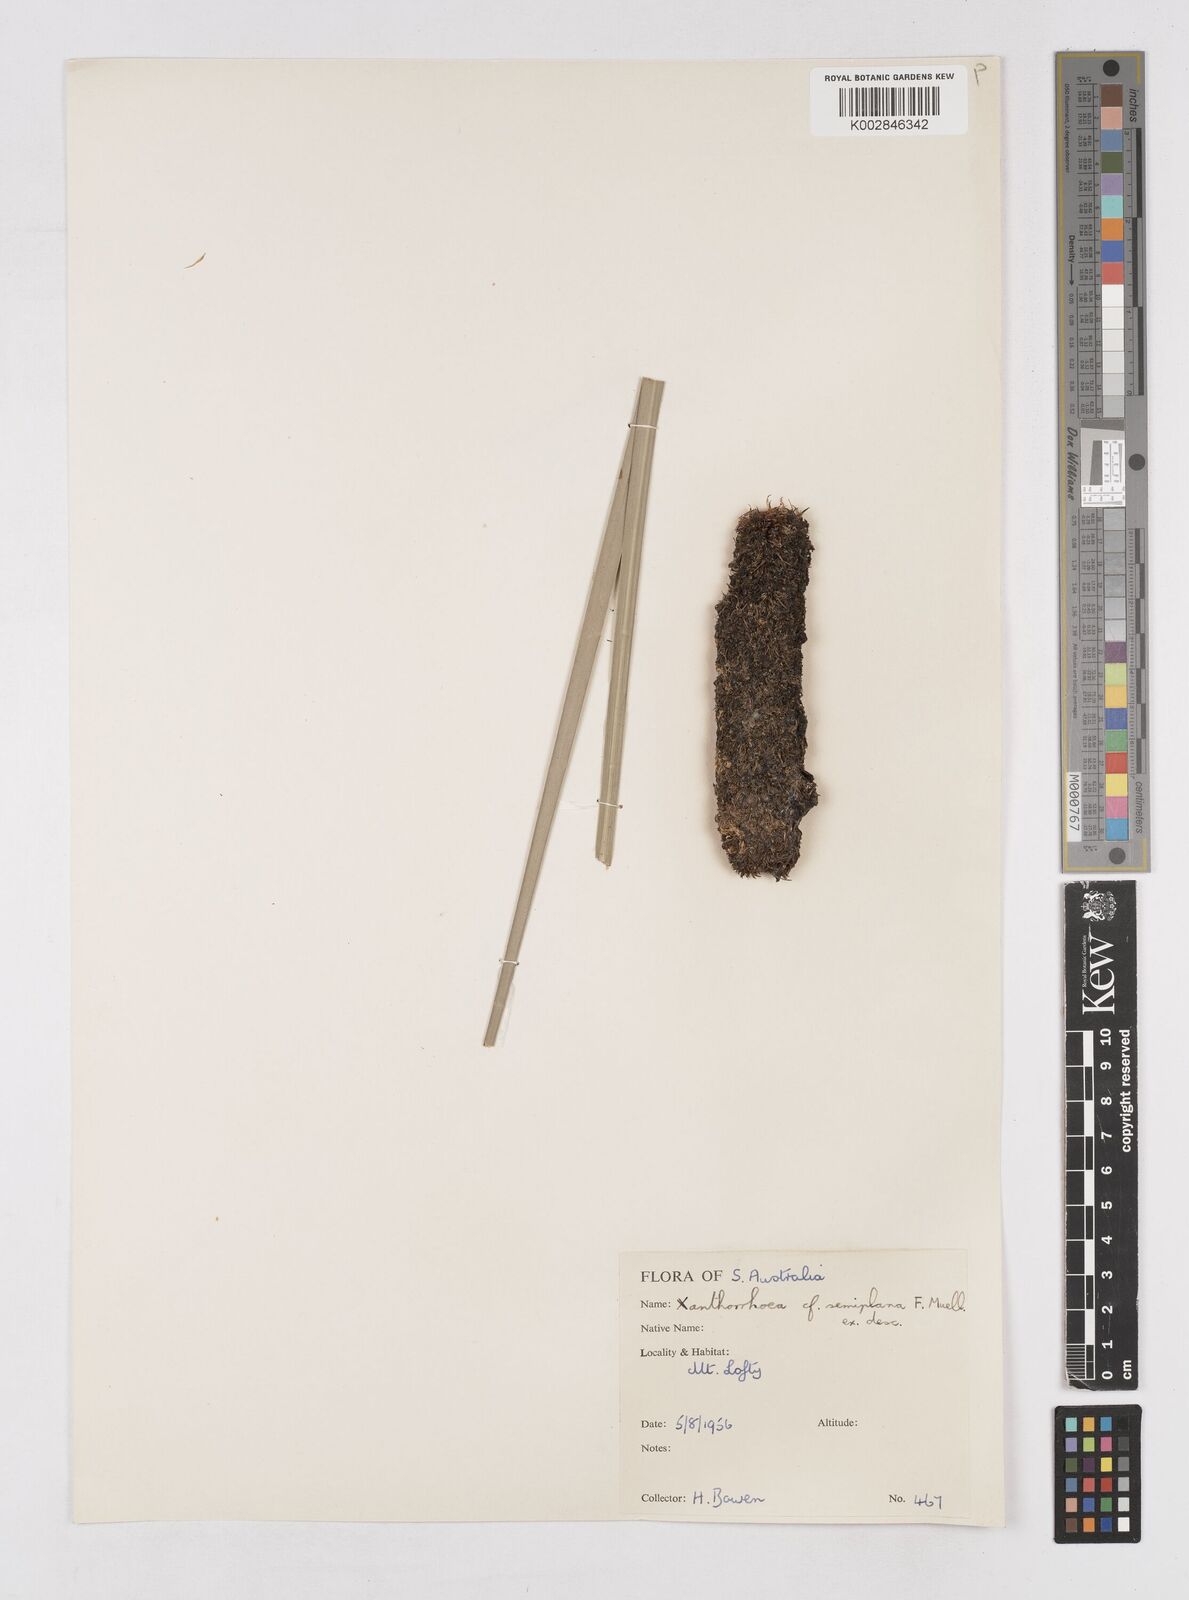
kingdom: Plantae
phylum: Tracheophyta
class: Liliopsida
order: Asparagales
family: Asphodelaceae
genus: Xanthorrhoea
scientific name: Xanthorrhoea semiplana
